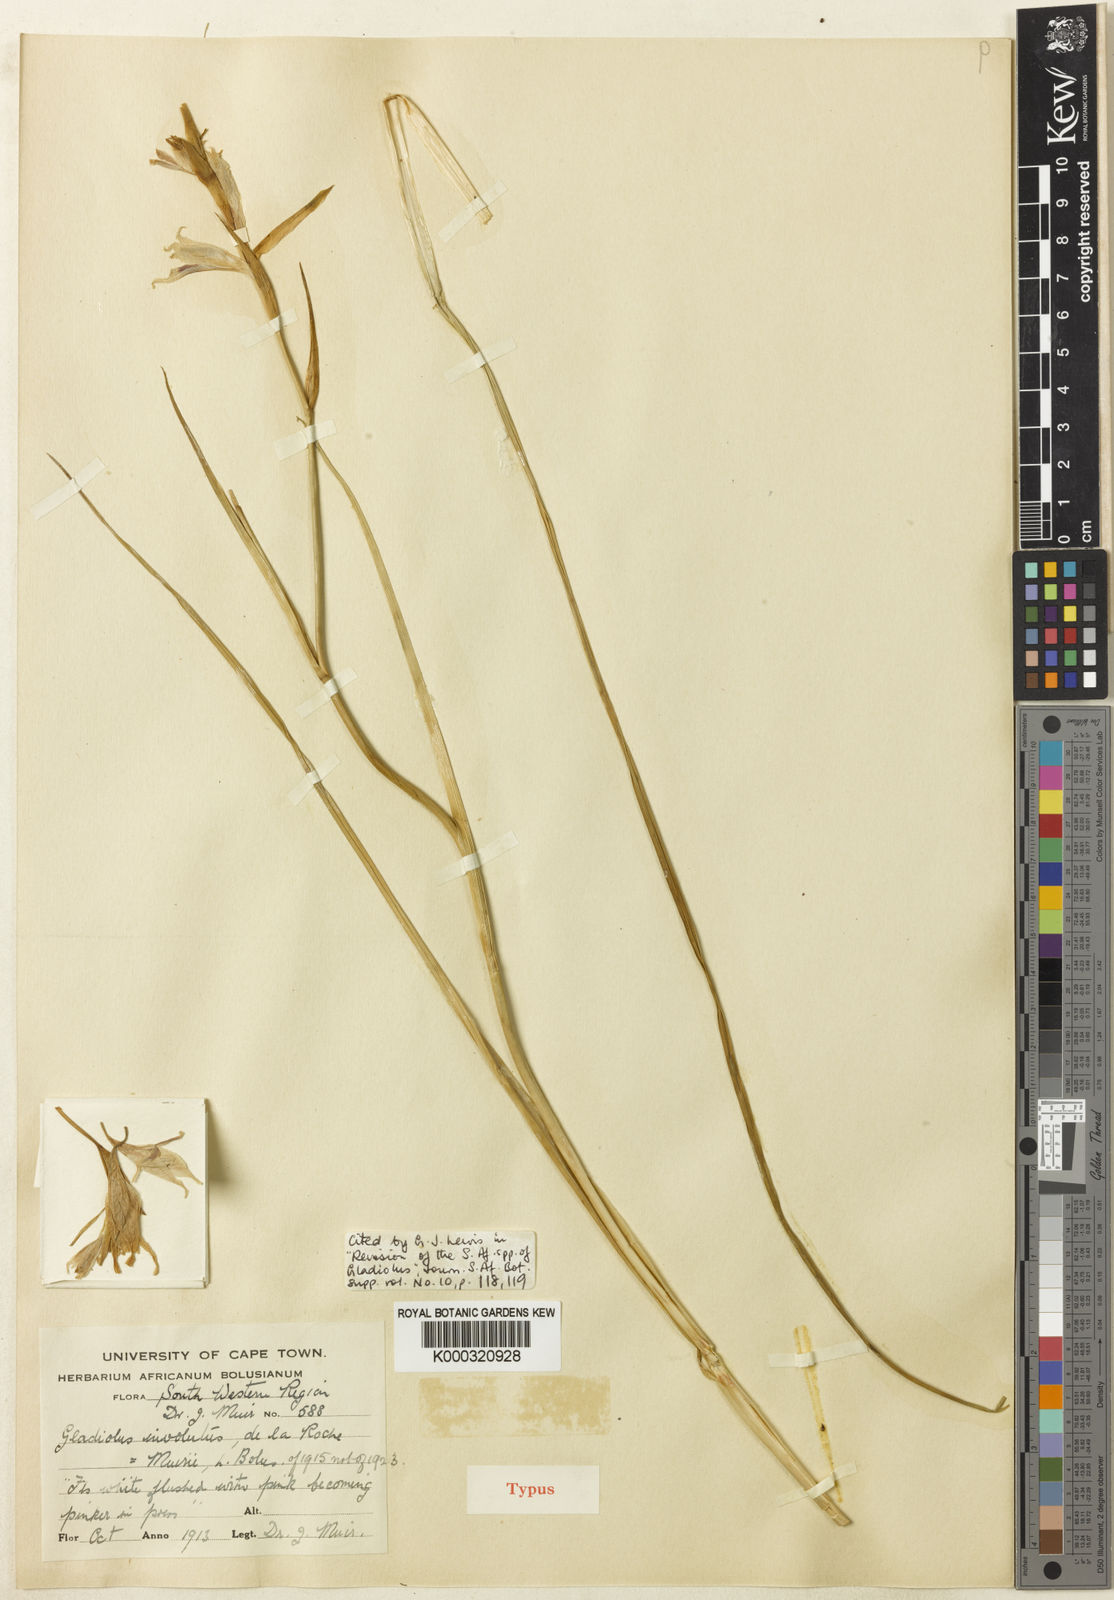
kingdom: Plantae
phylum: Tracheophyta
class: Liliopsida
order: Asparagales
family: Iridaceae
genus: Gladiolus
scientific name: Gladiolus involutus
